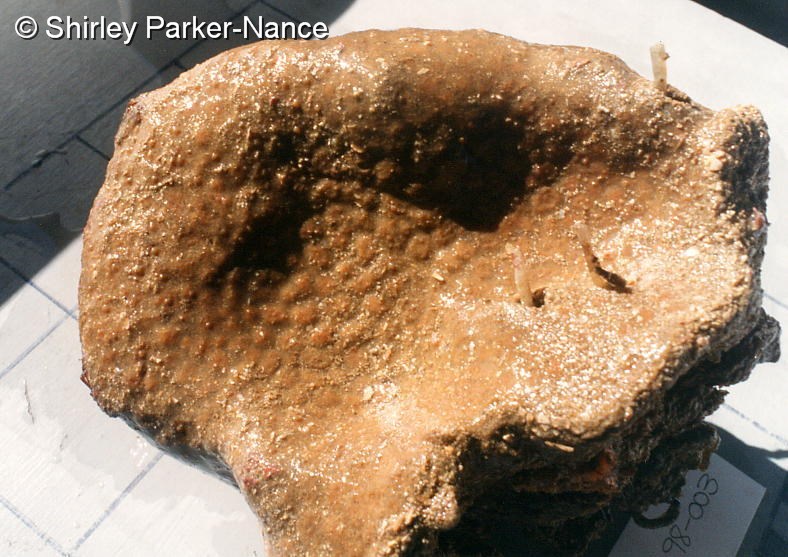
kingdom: Animalia
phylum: Chordata
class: Ascidiacea
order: Aplousobranchia
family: Polyclinidae
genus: Polyclinum
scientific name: Polyclinum isipingense
